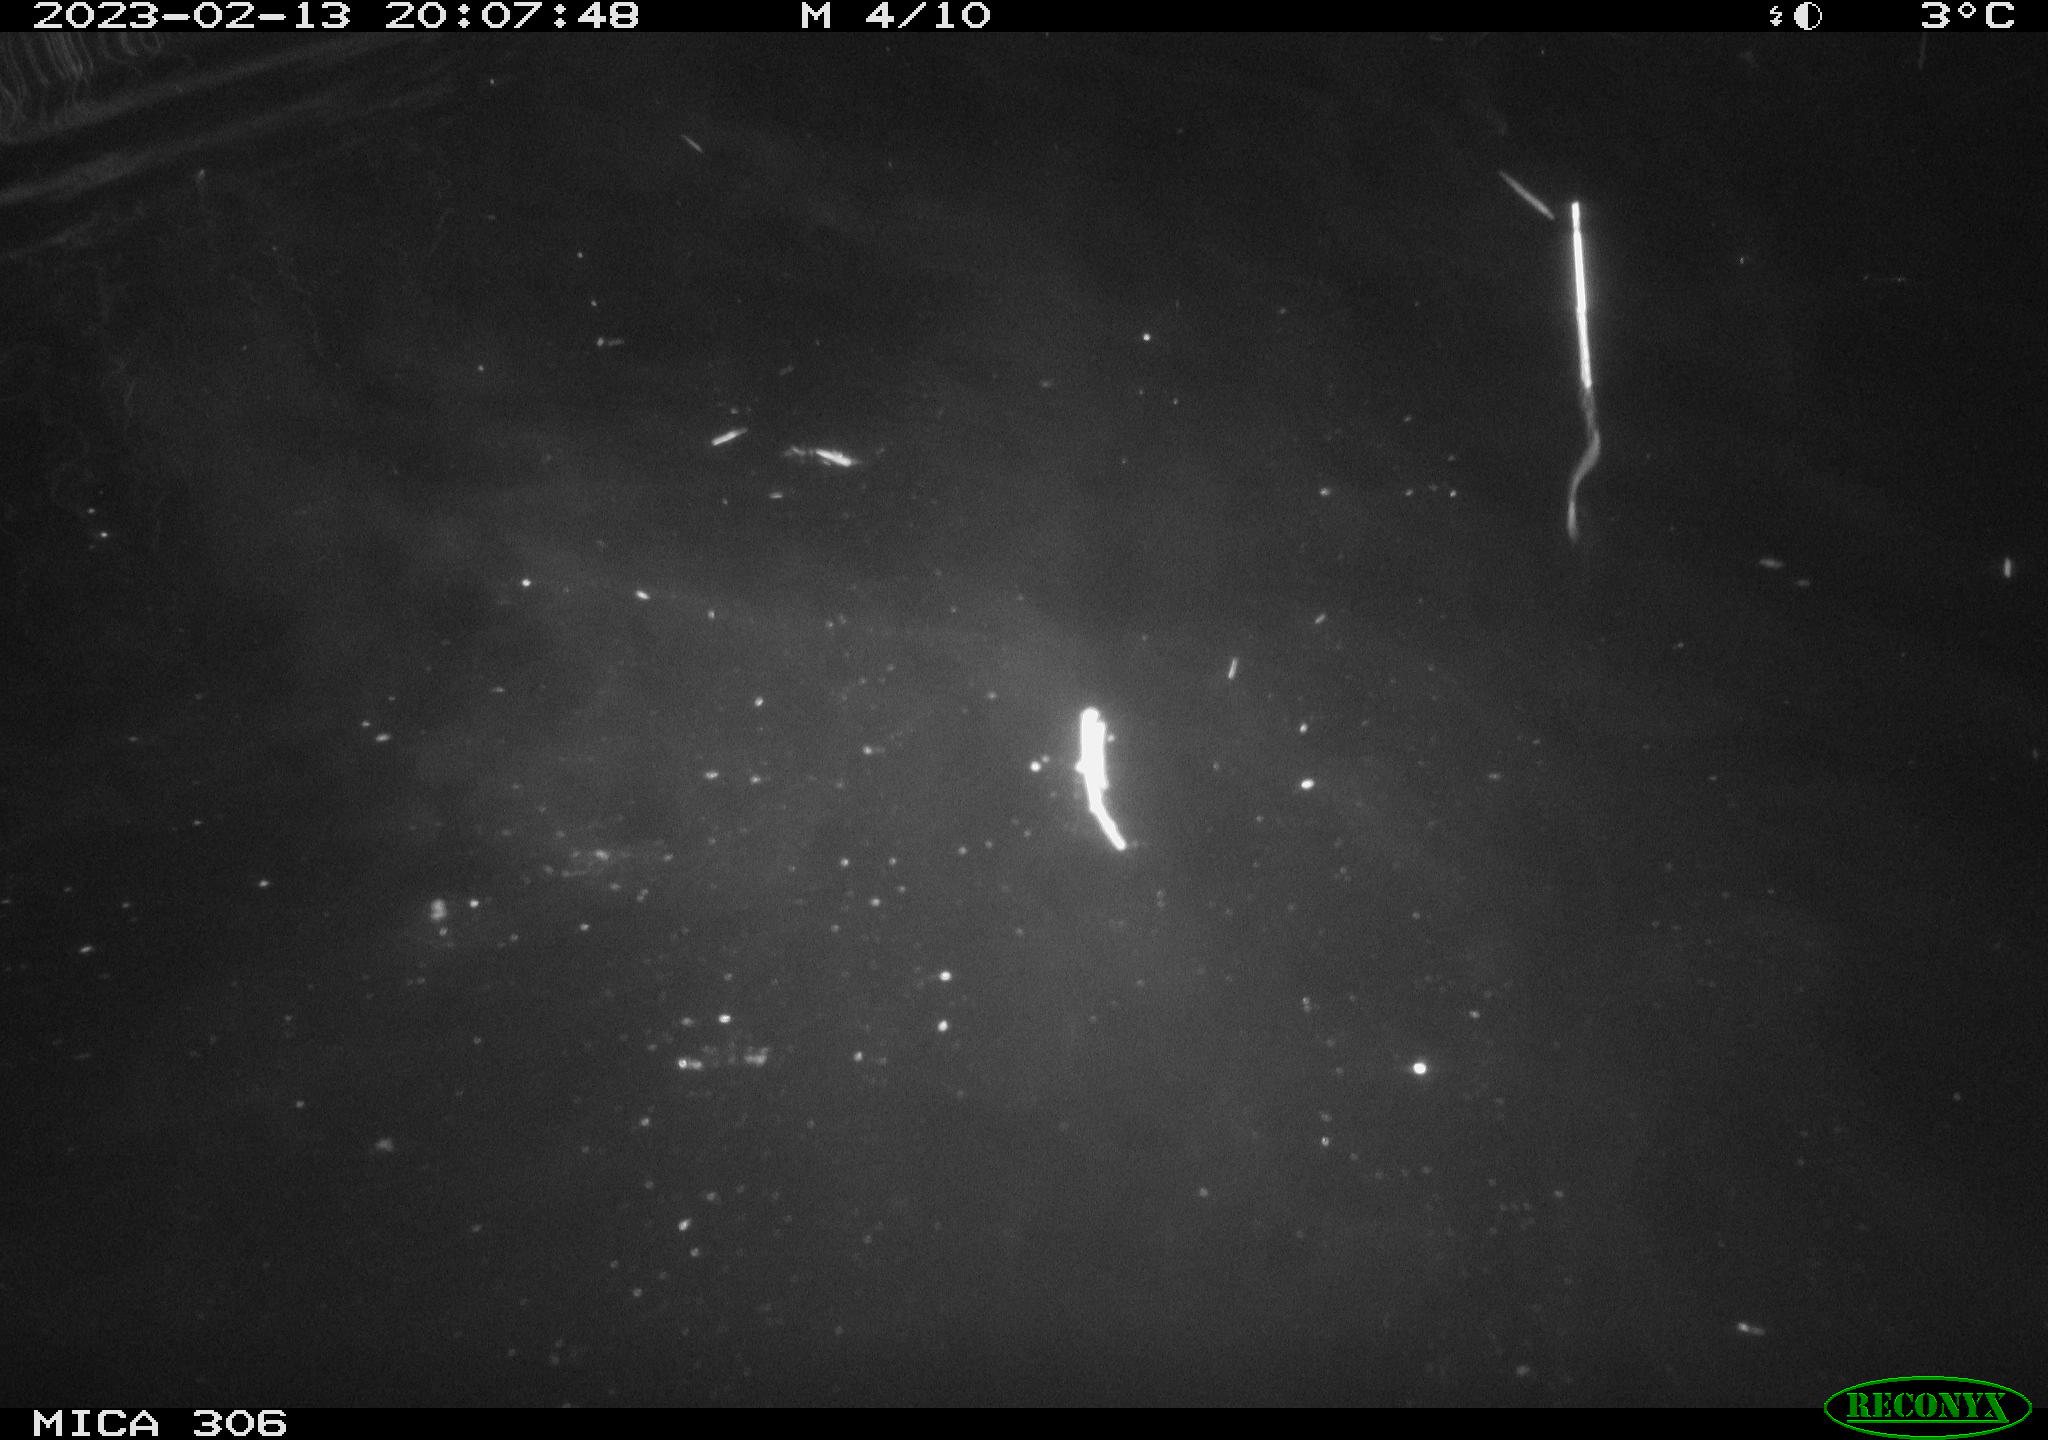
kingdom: Animalia
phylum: Chordata
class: Mammalia
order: Rodentia
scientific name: Rodentia
